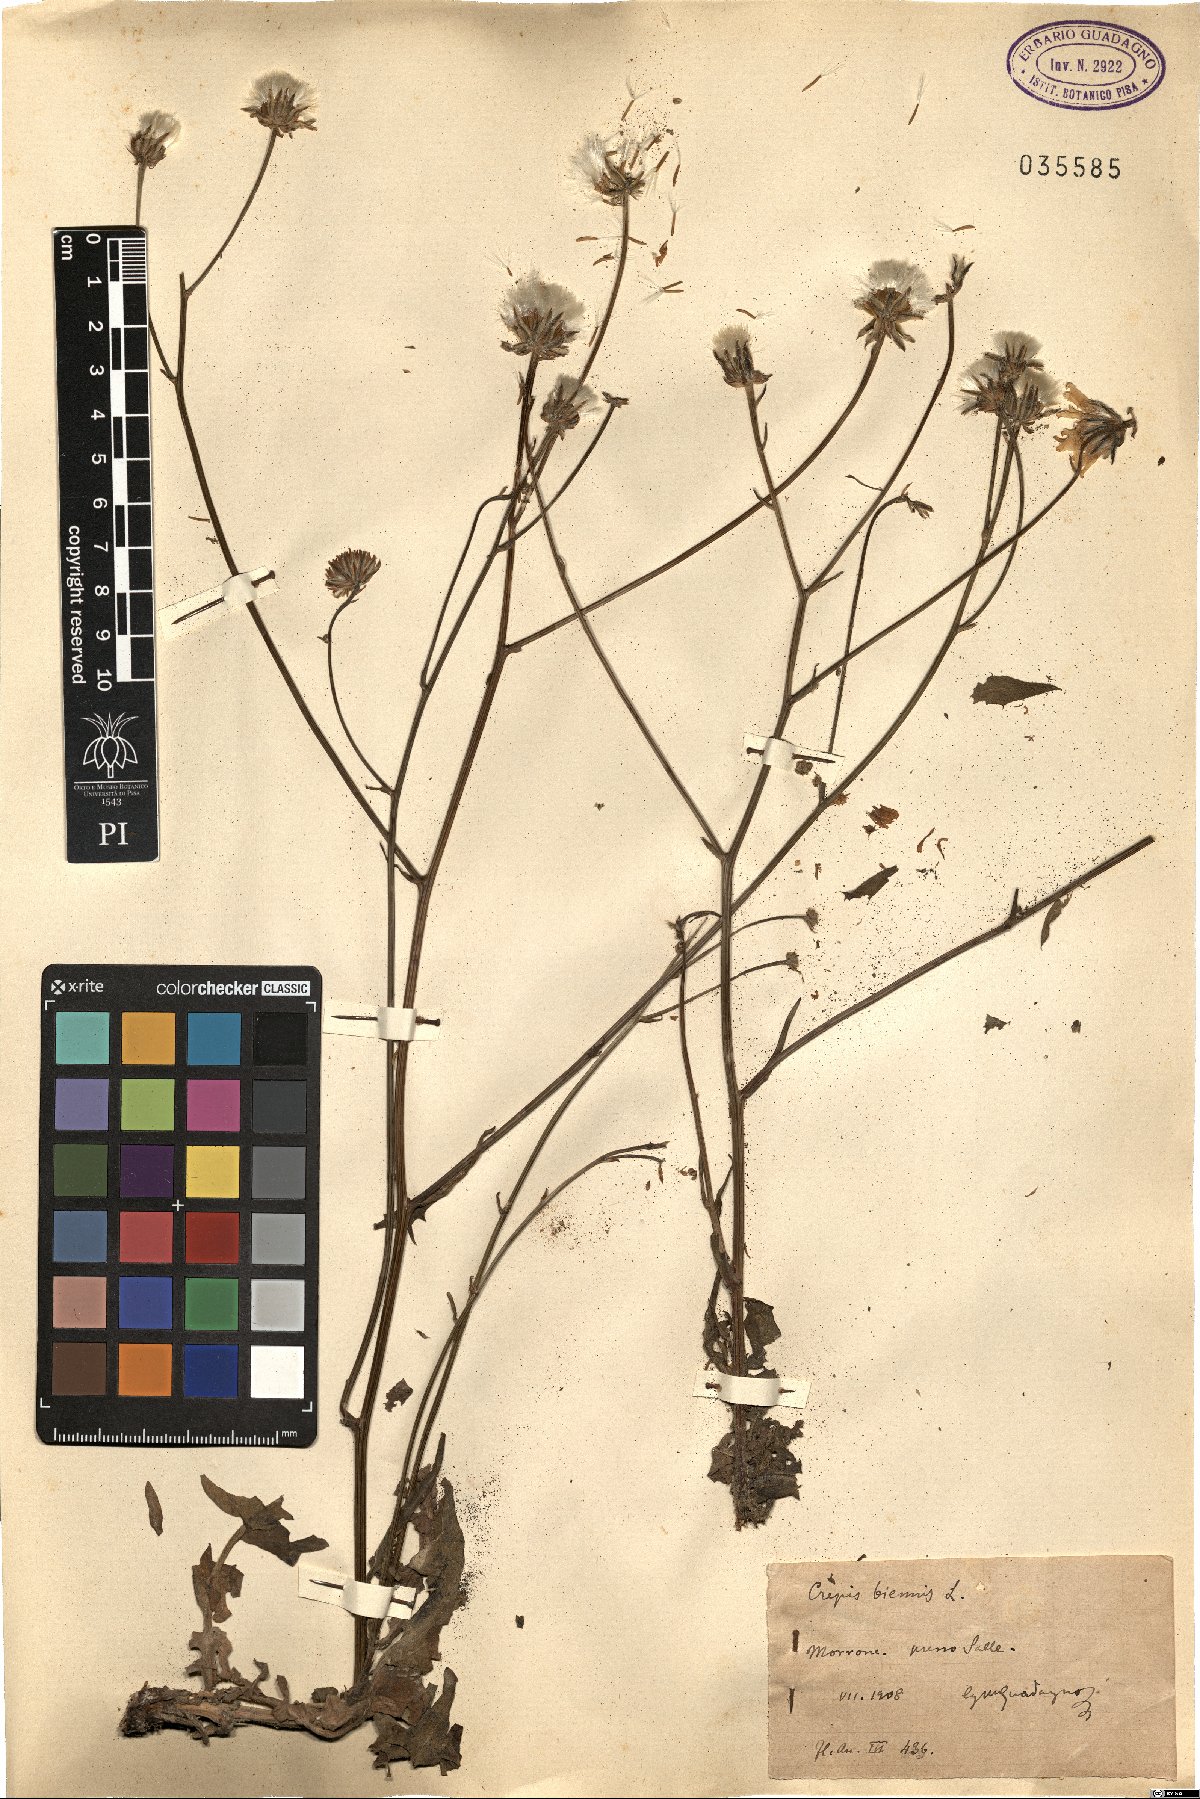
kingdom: Plantae
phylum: Tracheophyta
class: Magnoliopsida
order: Asterales
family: Asteraceae
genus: Crepis
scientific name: Crepis biennis
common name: Rough hawk's-beard
